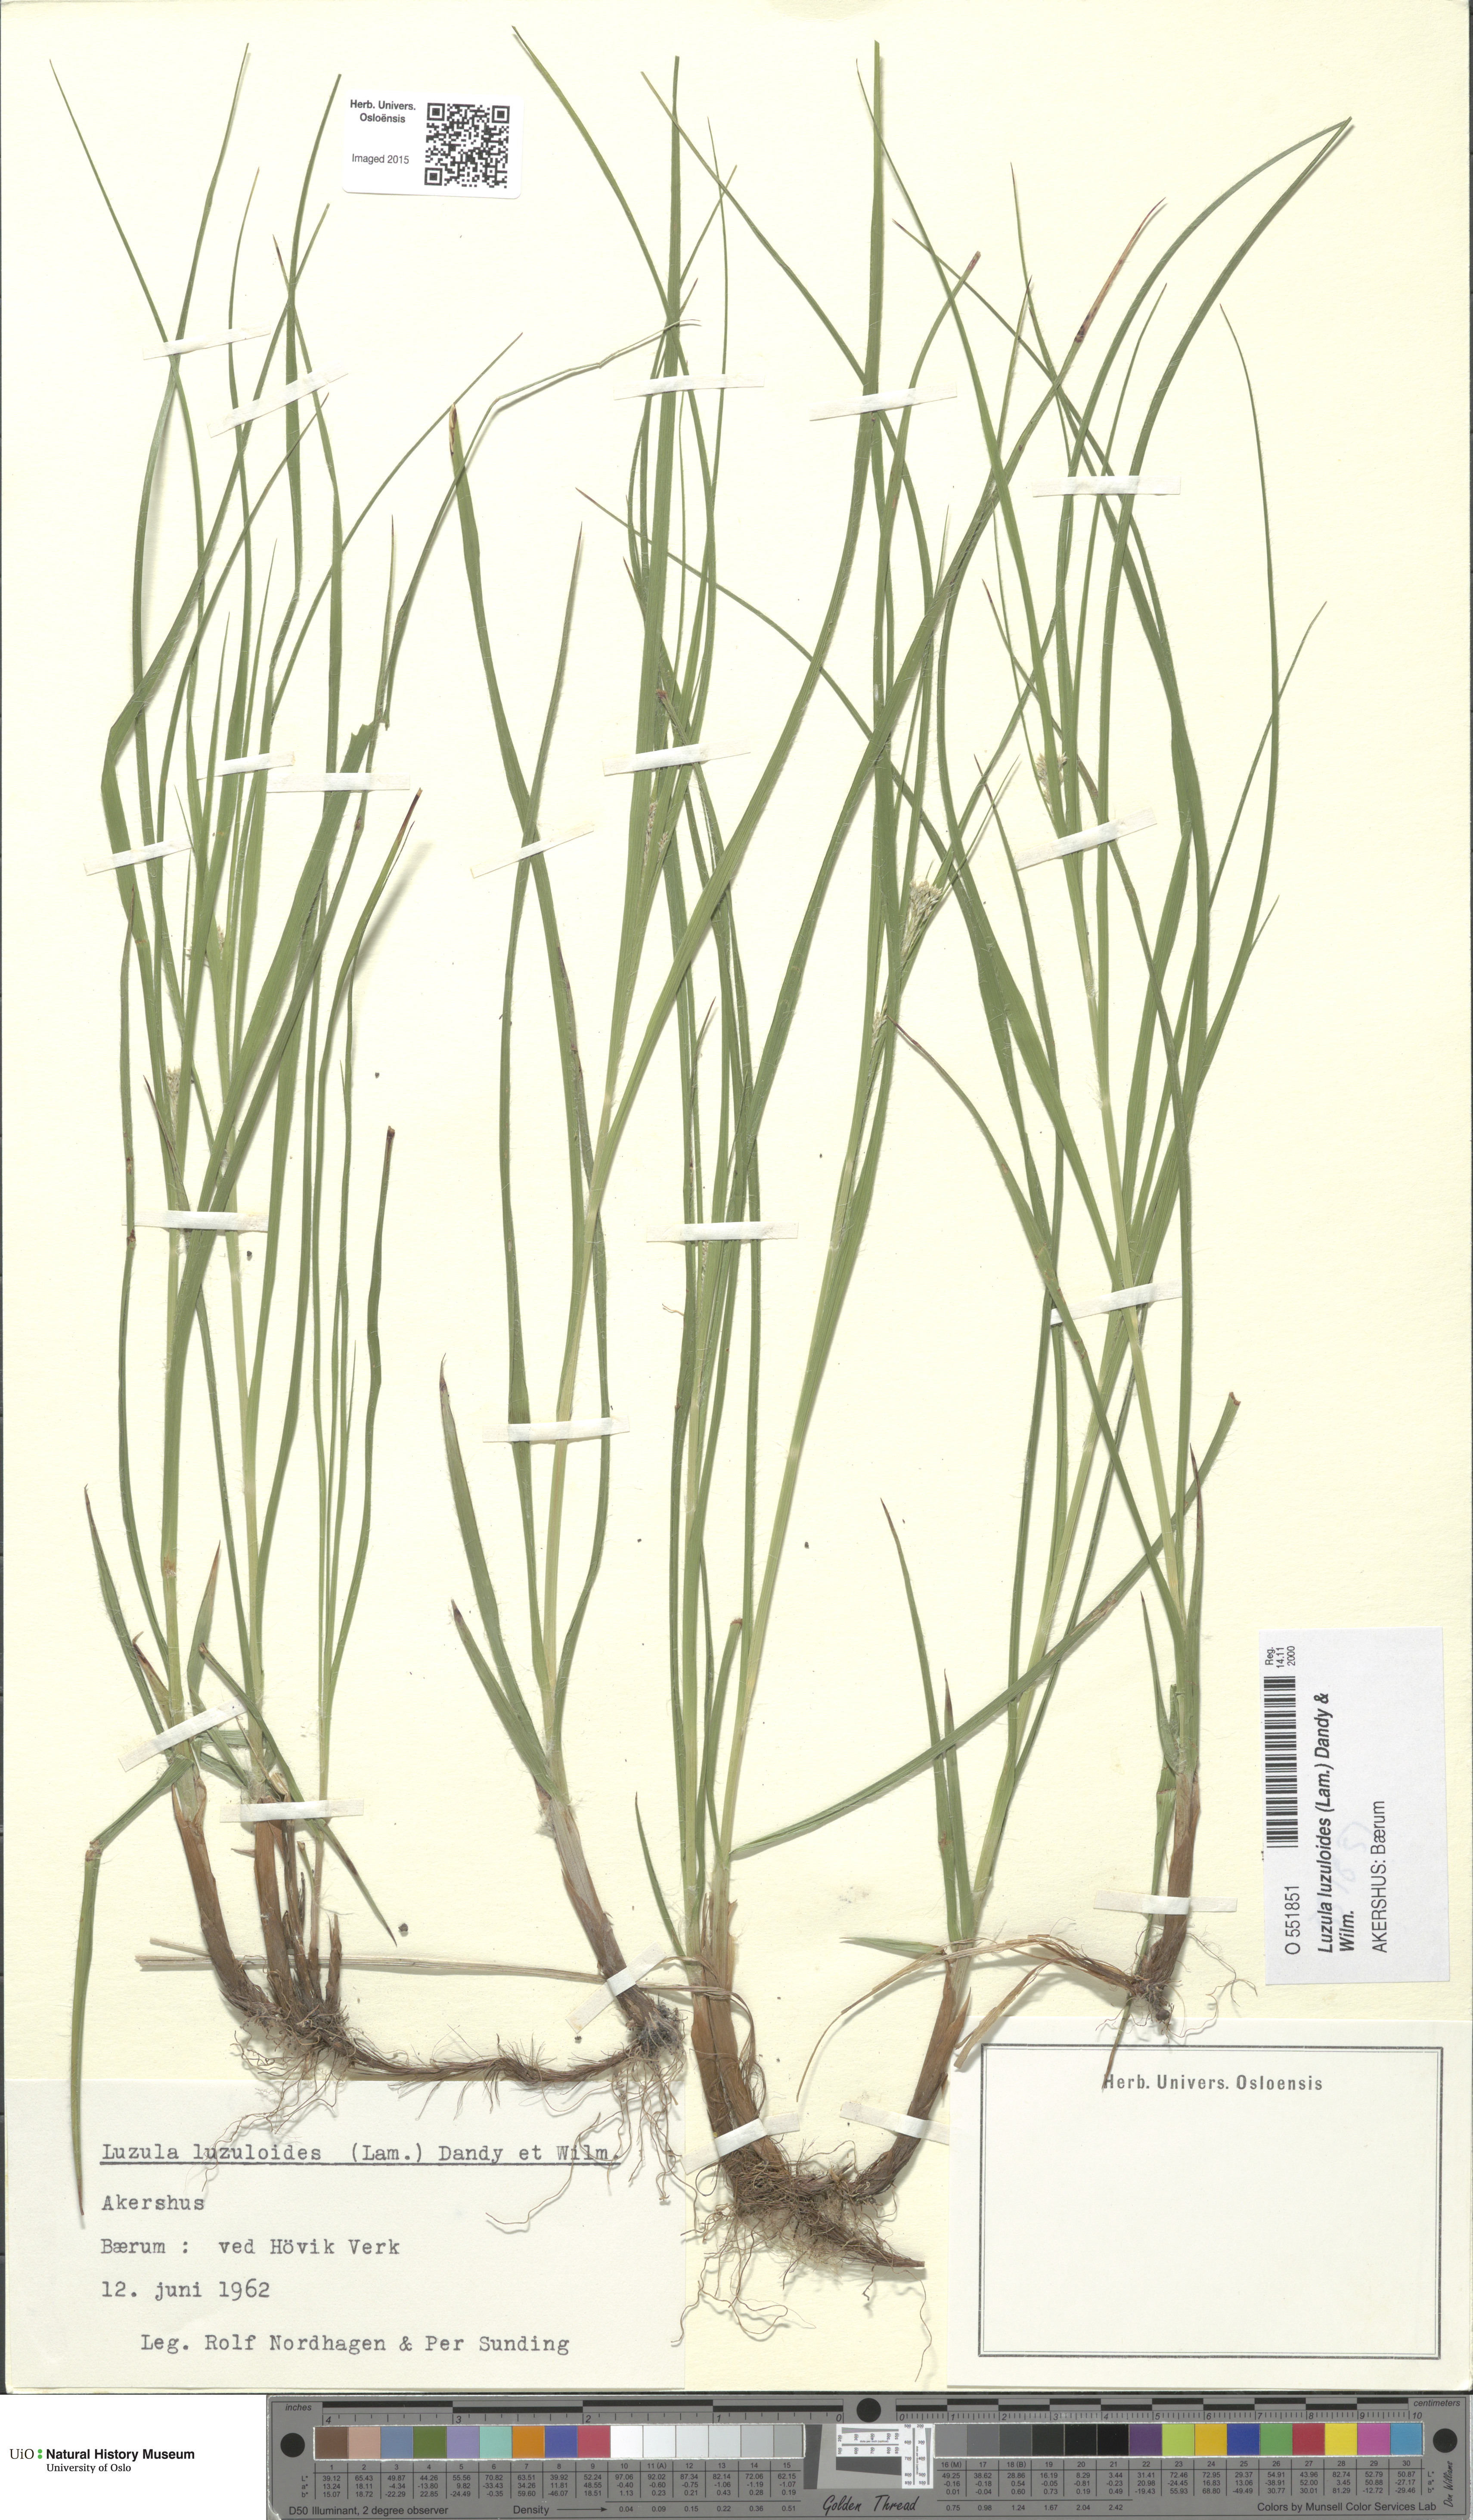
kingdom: Plantae
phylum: Tracheophyta
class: Liliopsida
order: Poales
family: Juncaceae
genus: Luzula
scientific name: Luzula luzuloides
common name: White wood-rush
